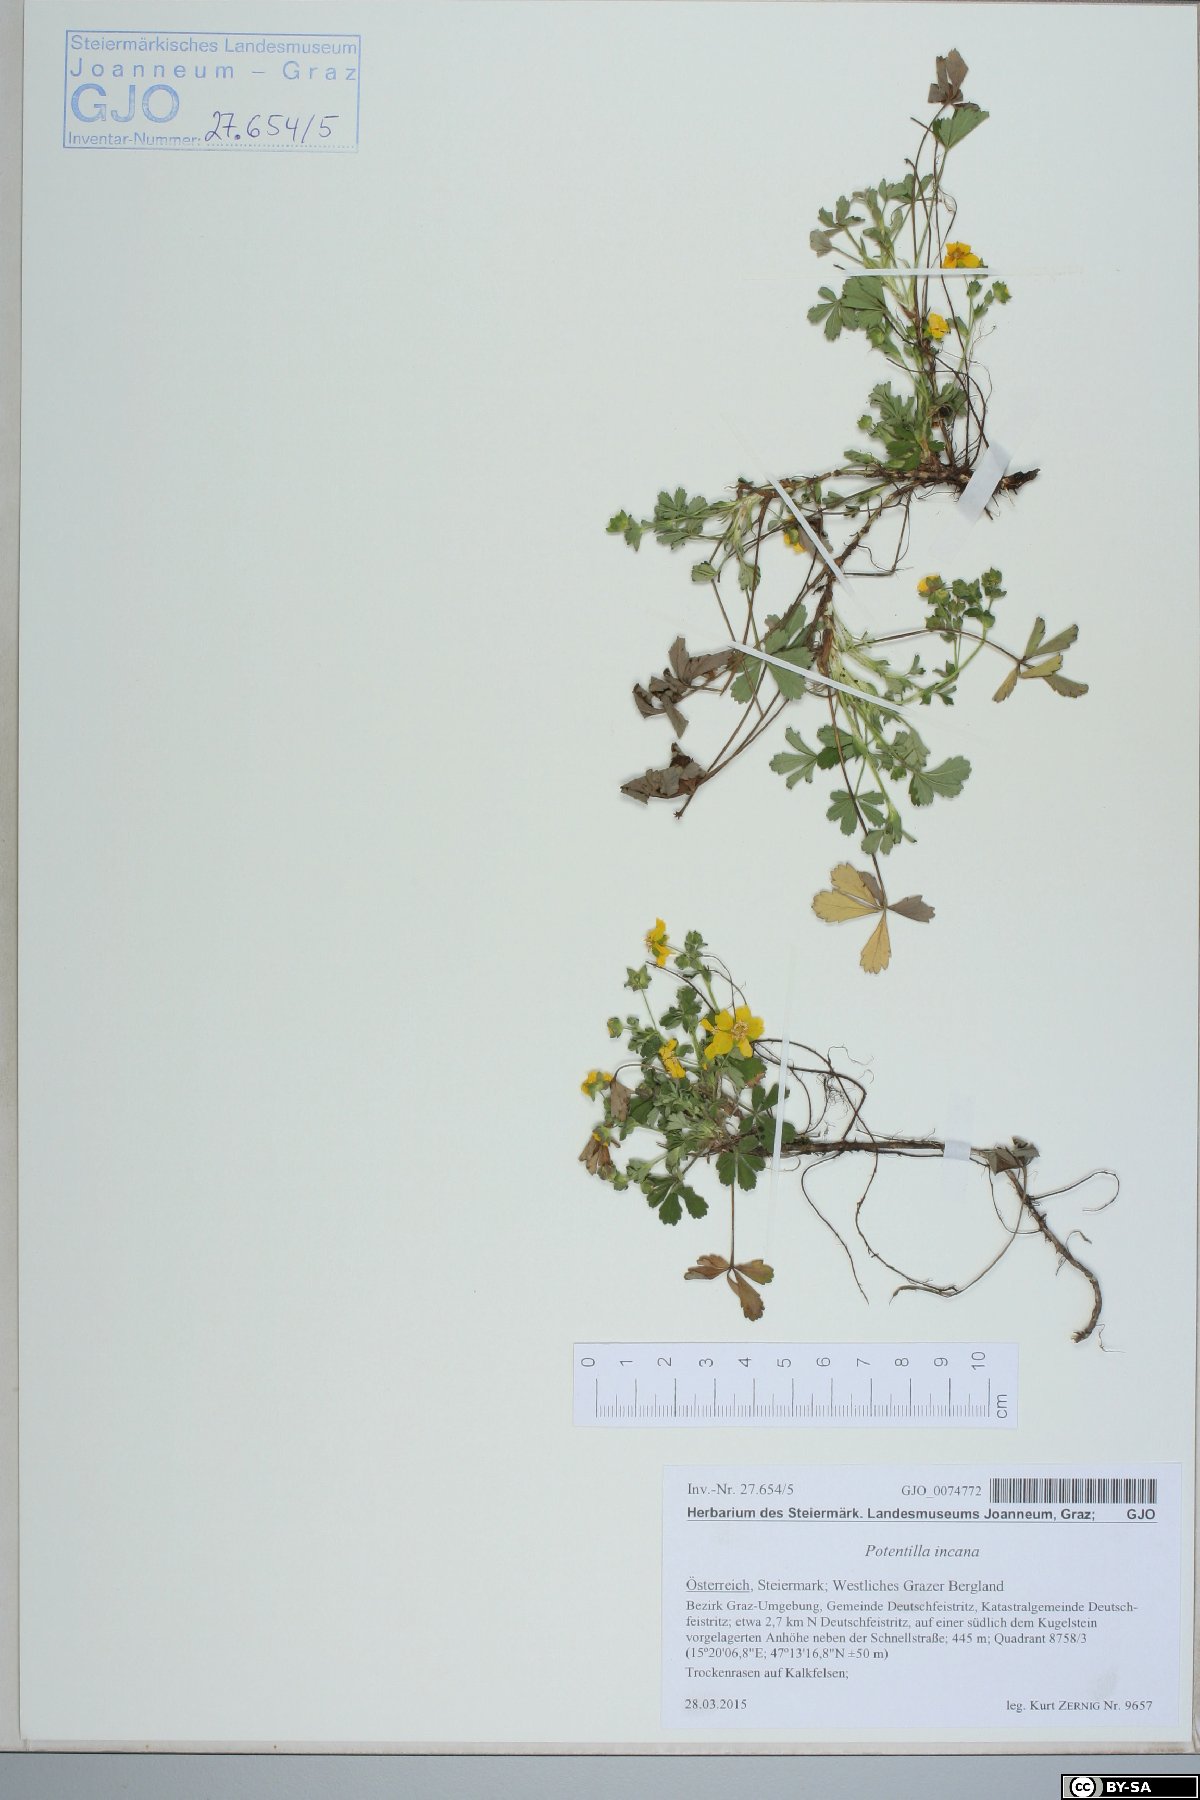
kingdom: Plantae
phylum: Tracheophyta
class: Magnoliopsida
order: Rosales
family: Rosaceae
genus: Potentilla
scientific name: Potentilla cinerea
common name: Ashy cinquefoil
